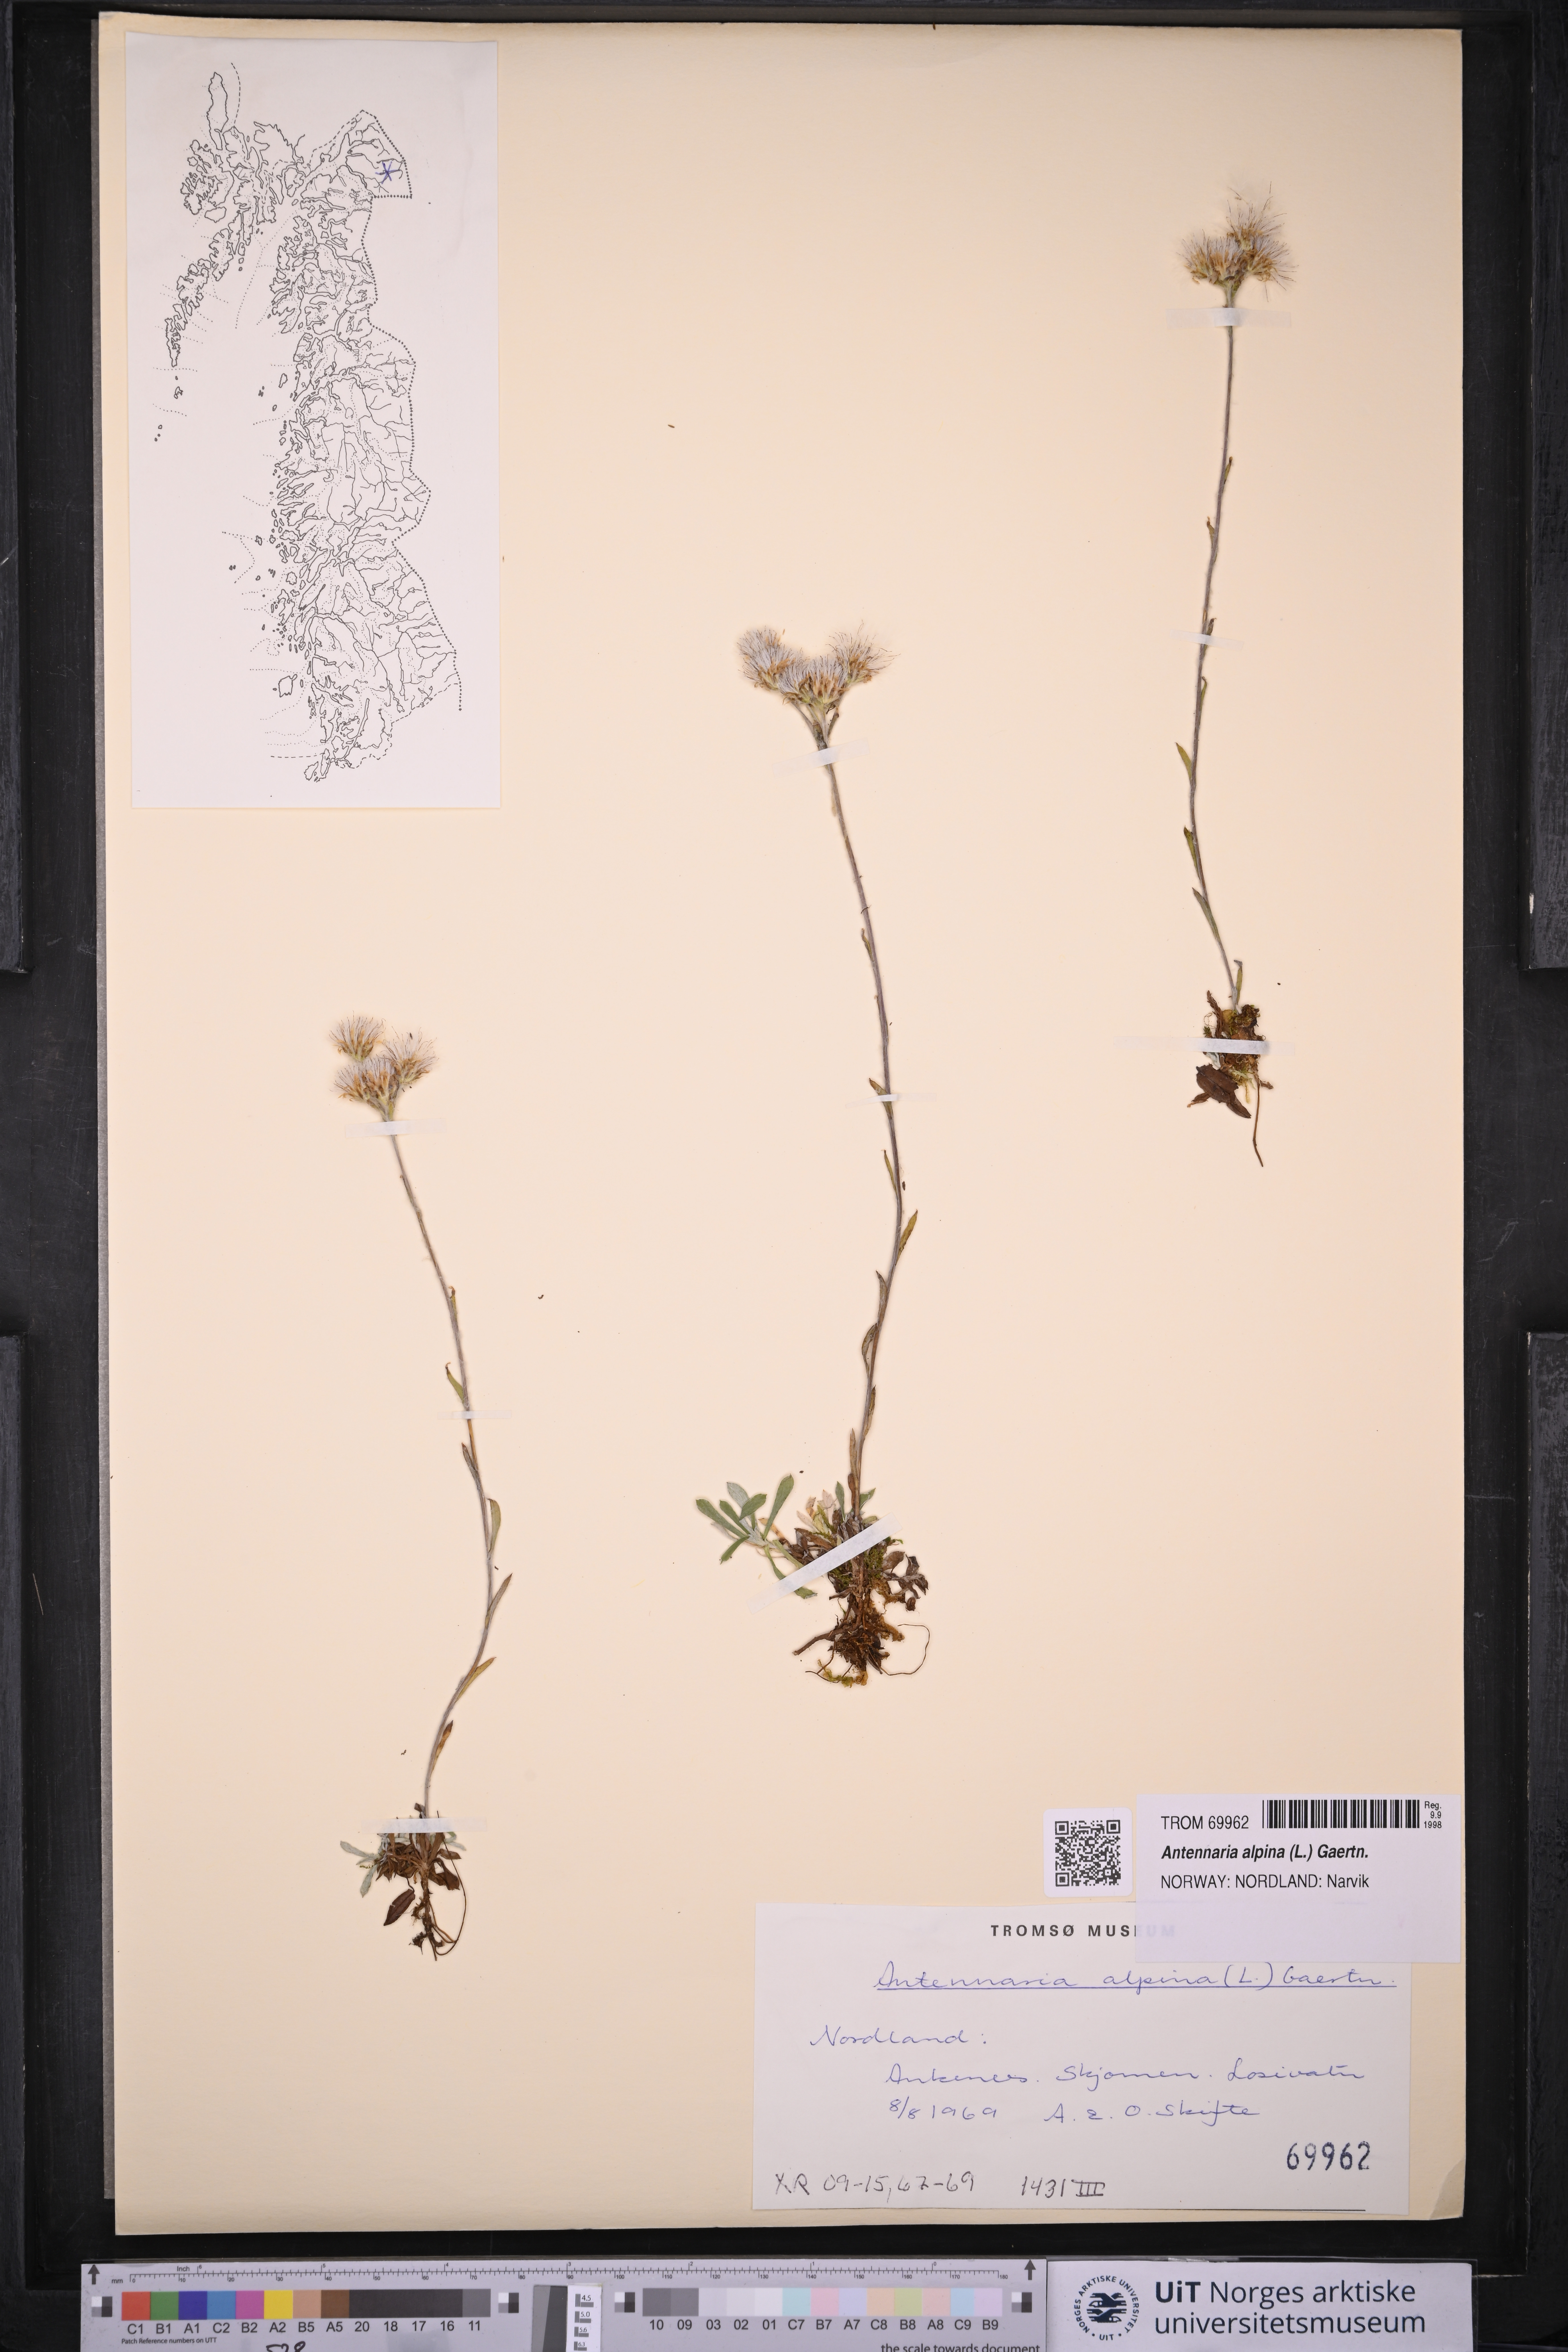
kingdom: Plantae
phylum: Tracheophyta
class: Magnoliopsida
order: Asterales
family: Asteraceae
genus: Antennaria
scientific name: Antennaria alpina
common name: Alpine pussytoes
